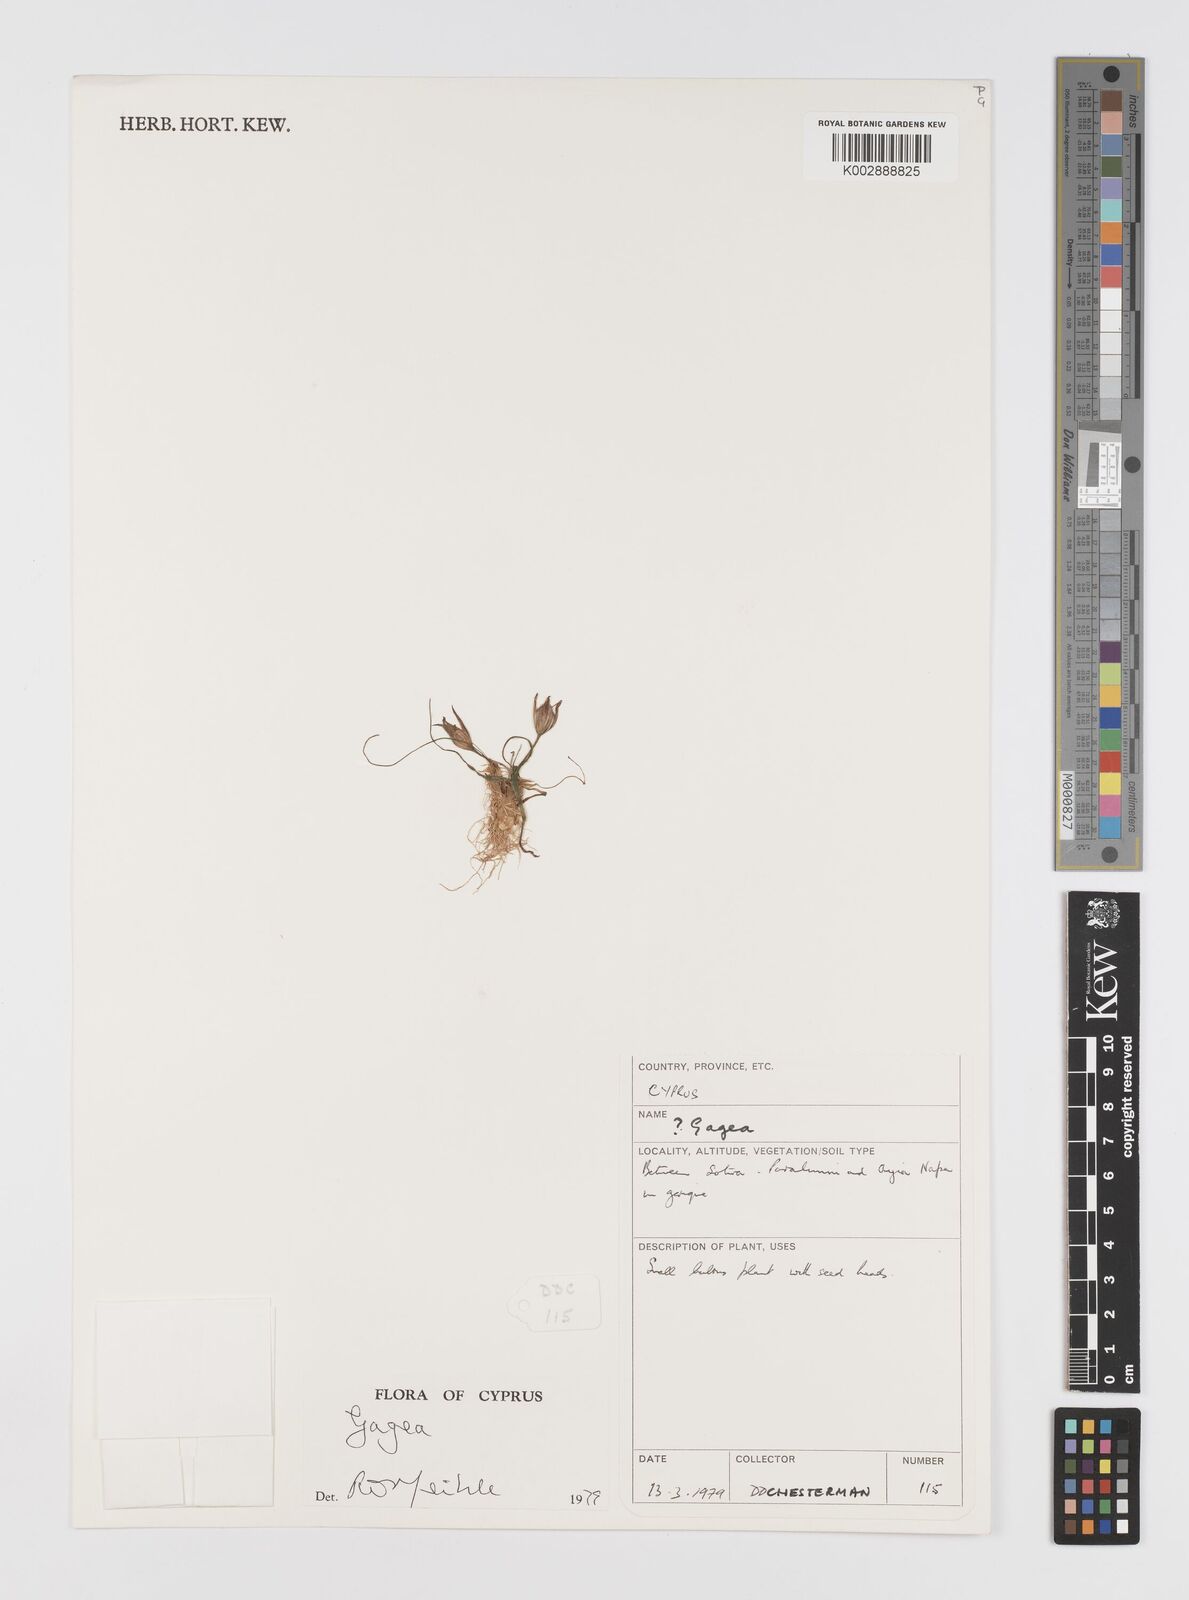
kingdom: Plantae
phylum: Tracheophyta
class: Liliopsida
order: Liliales
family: Liliaceae
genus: Gagea
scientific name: Gagea
